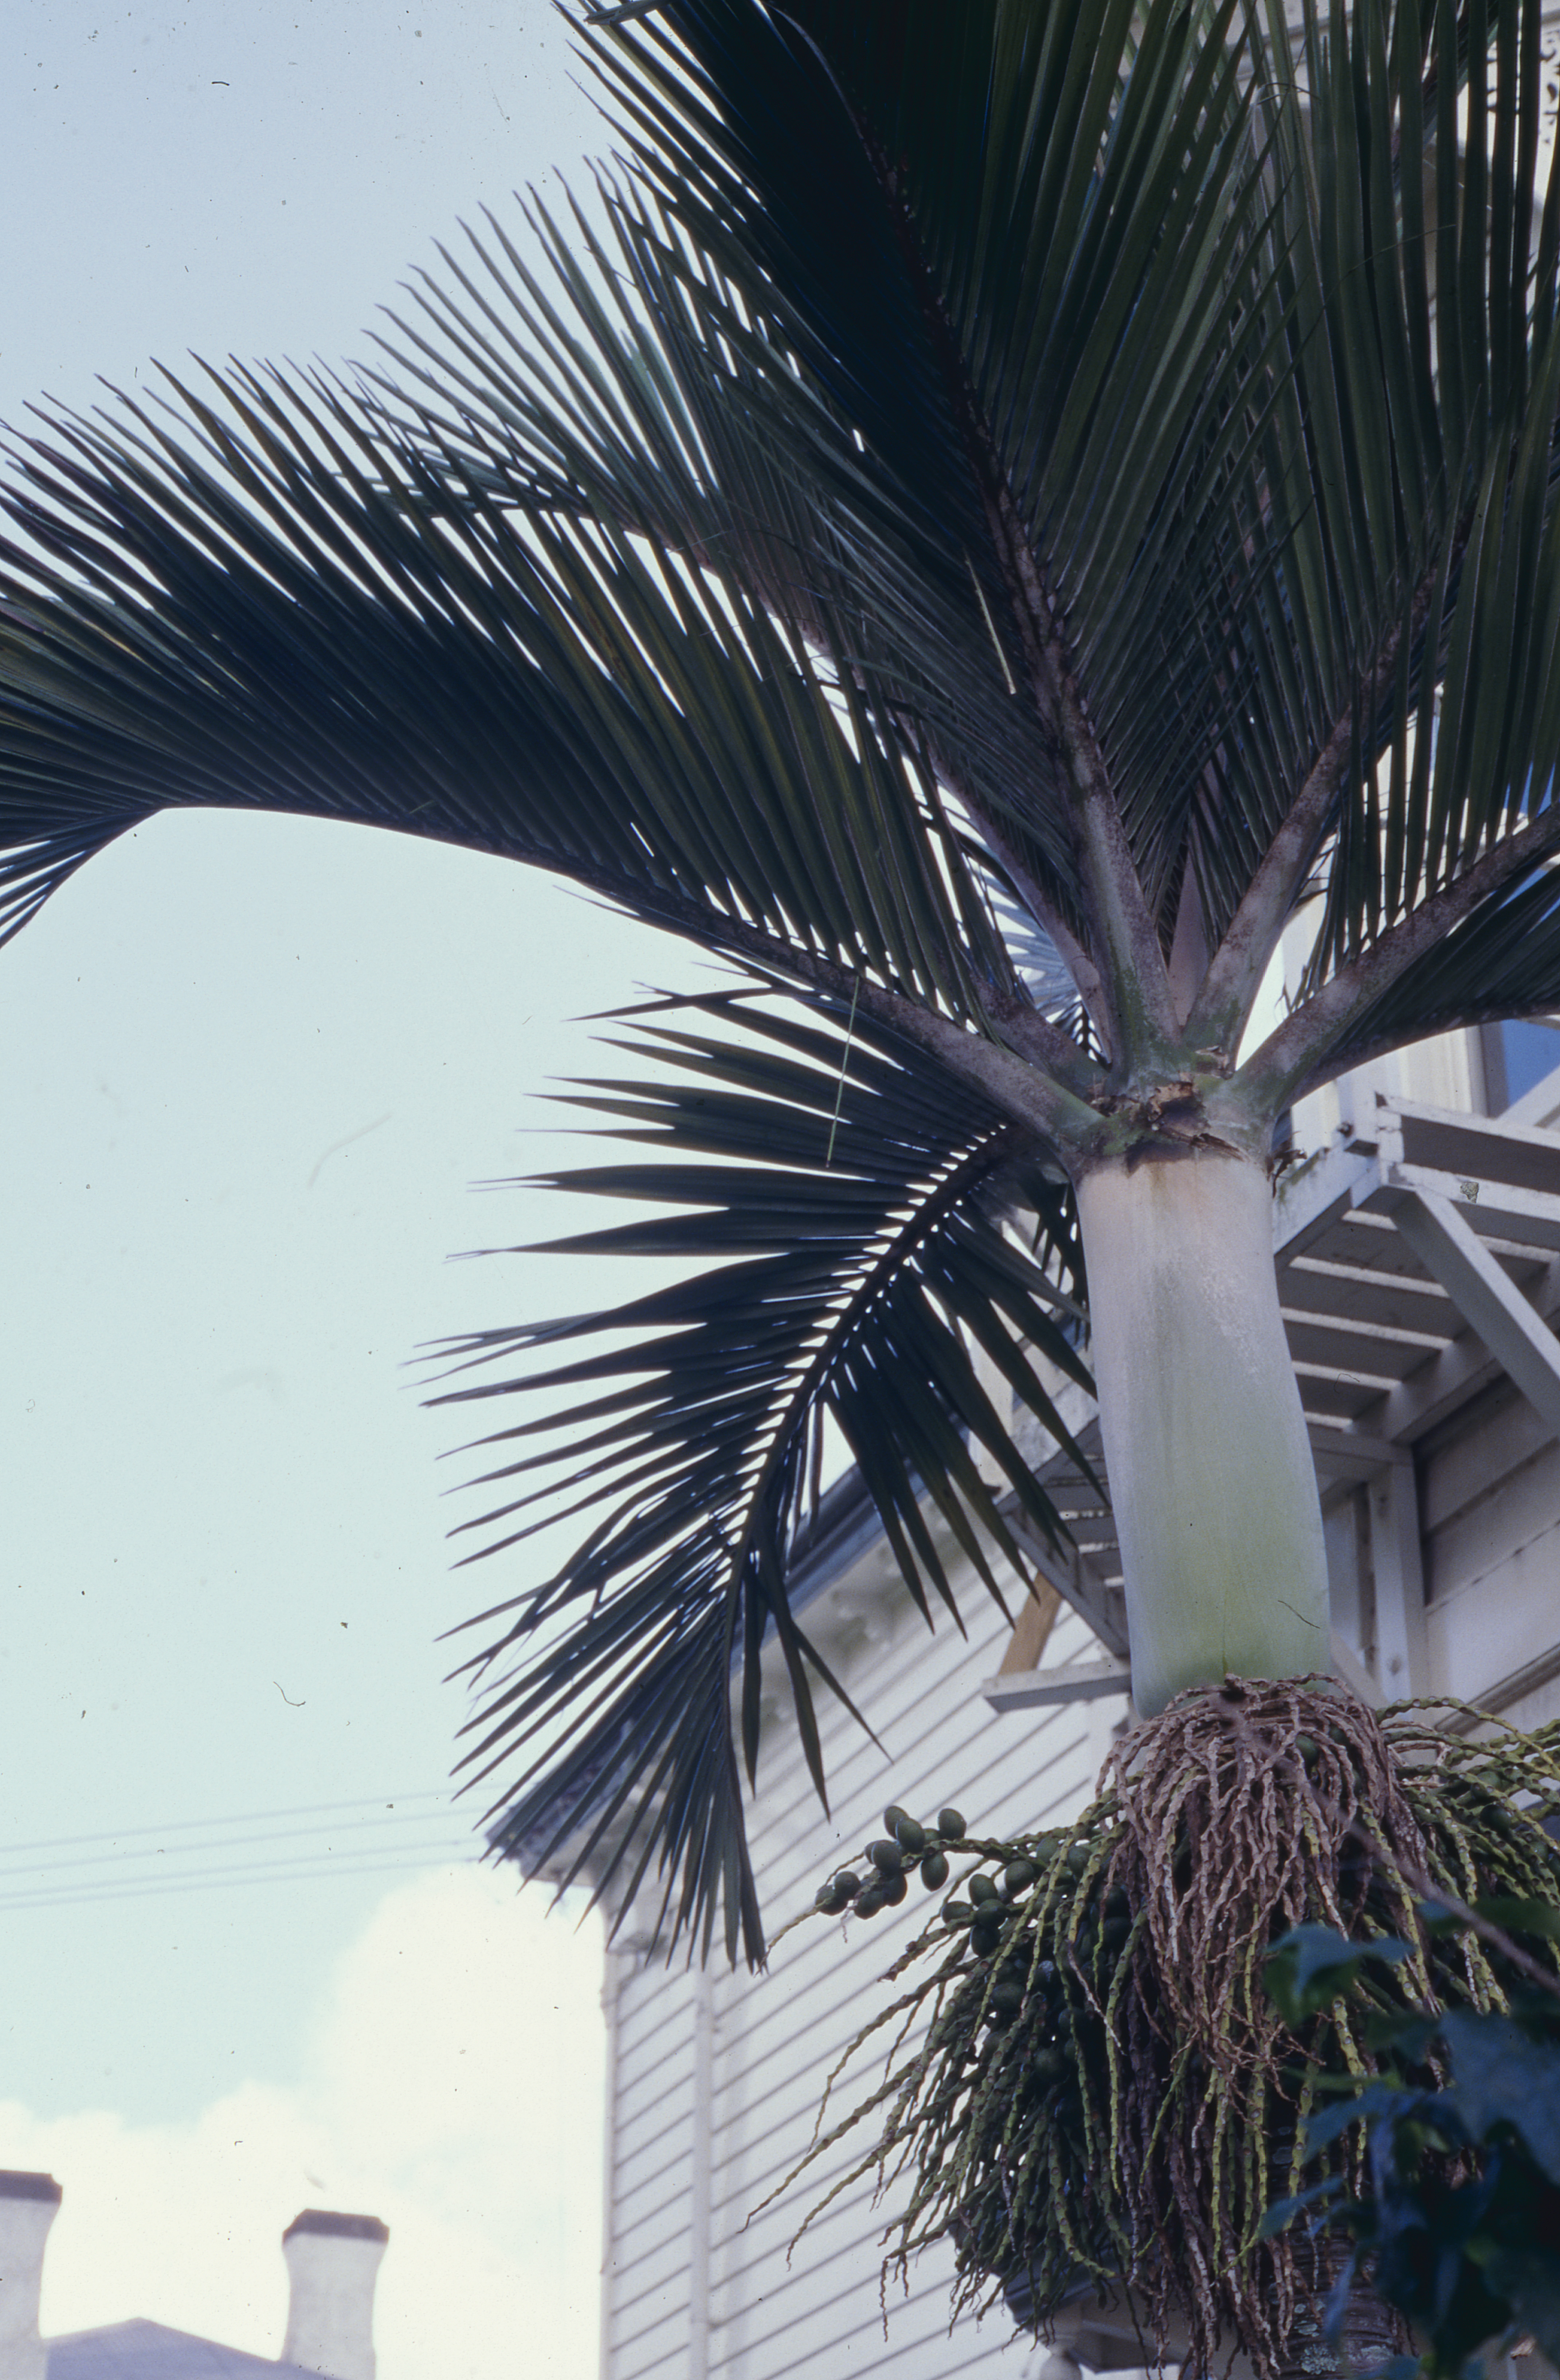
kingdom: Plantae
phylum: Tracheophyta
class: Liliopsida
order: Arecales
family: Arecaceae
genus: Hedyscepe
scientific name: Hedyscepe canterburyana
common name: Umbrella palm
